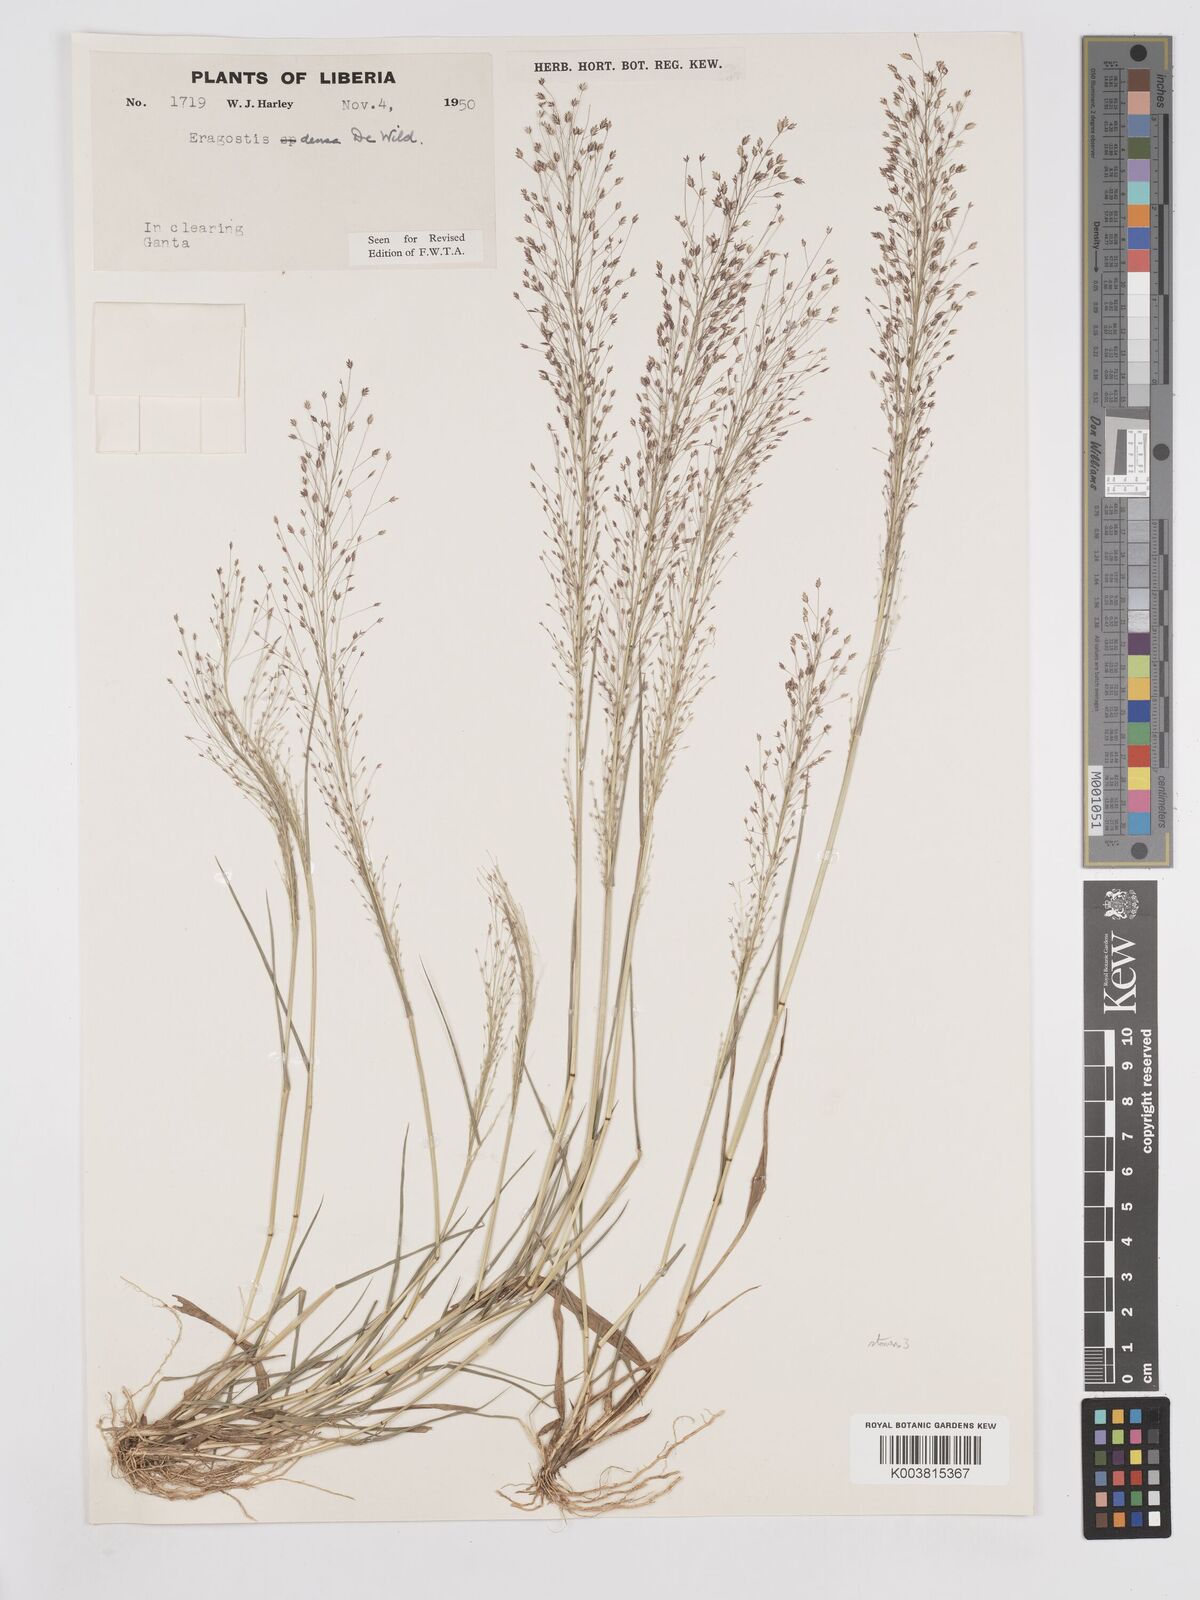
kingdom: Plantae
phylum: Tracheophyta
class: Liliopsida
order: Poales
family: Poaceae
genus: Eragrostis
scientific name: Eragrostis welwitschii
